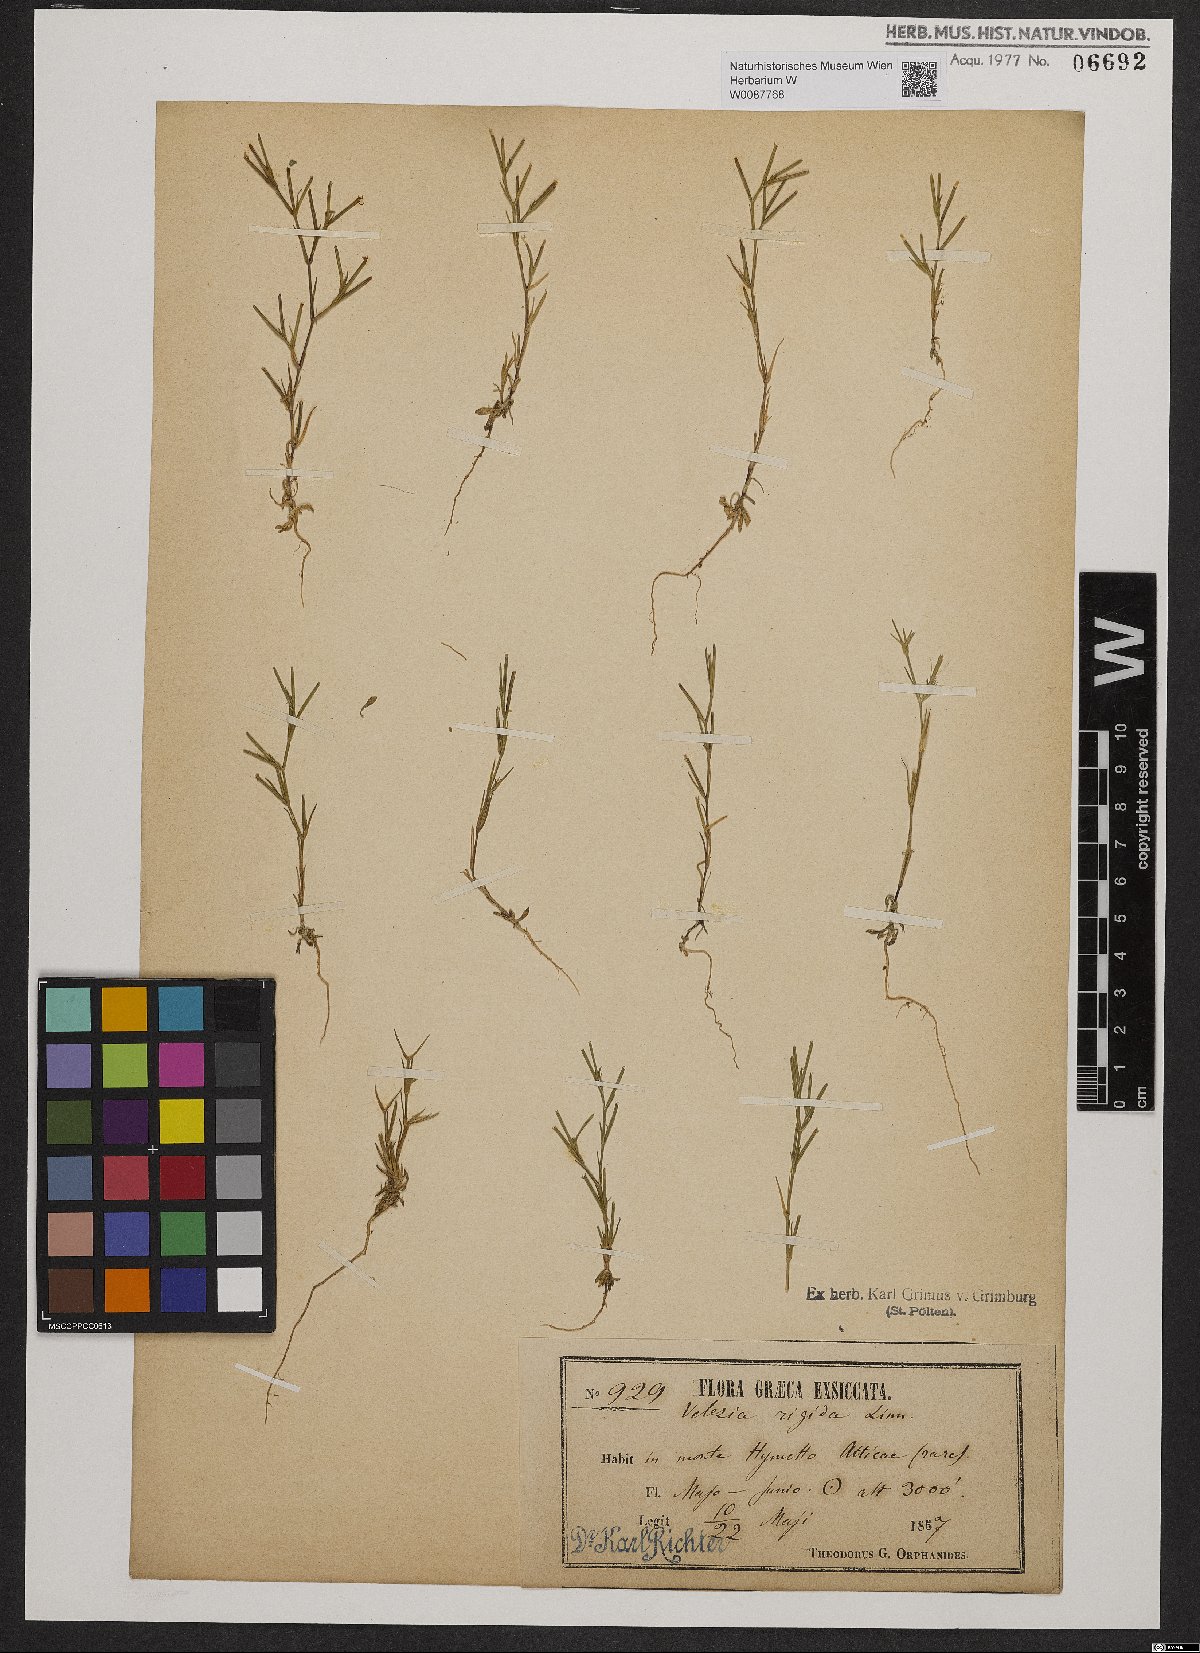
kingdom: Plantae
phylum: Tracheophyta
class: Magnoliopsida
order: Caryophyllales
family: Caryophyllaceae
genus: Dianthus
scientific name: Dianthus nudiflorus
